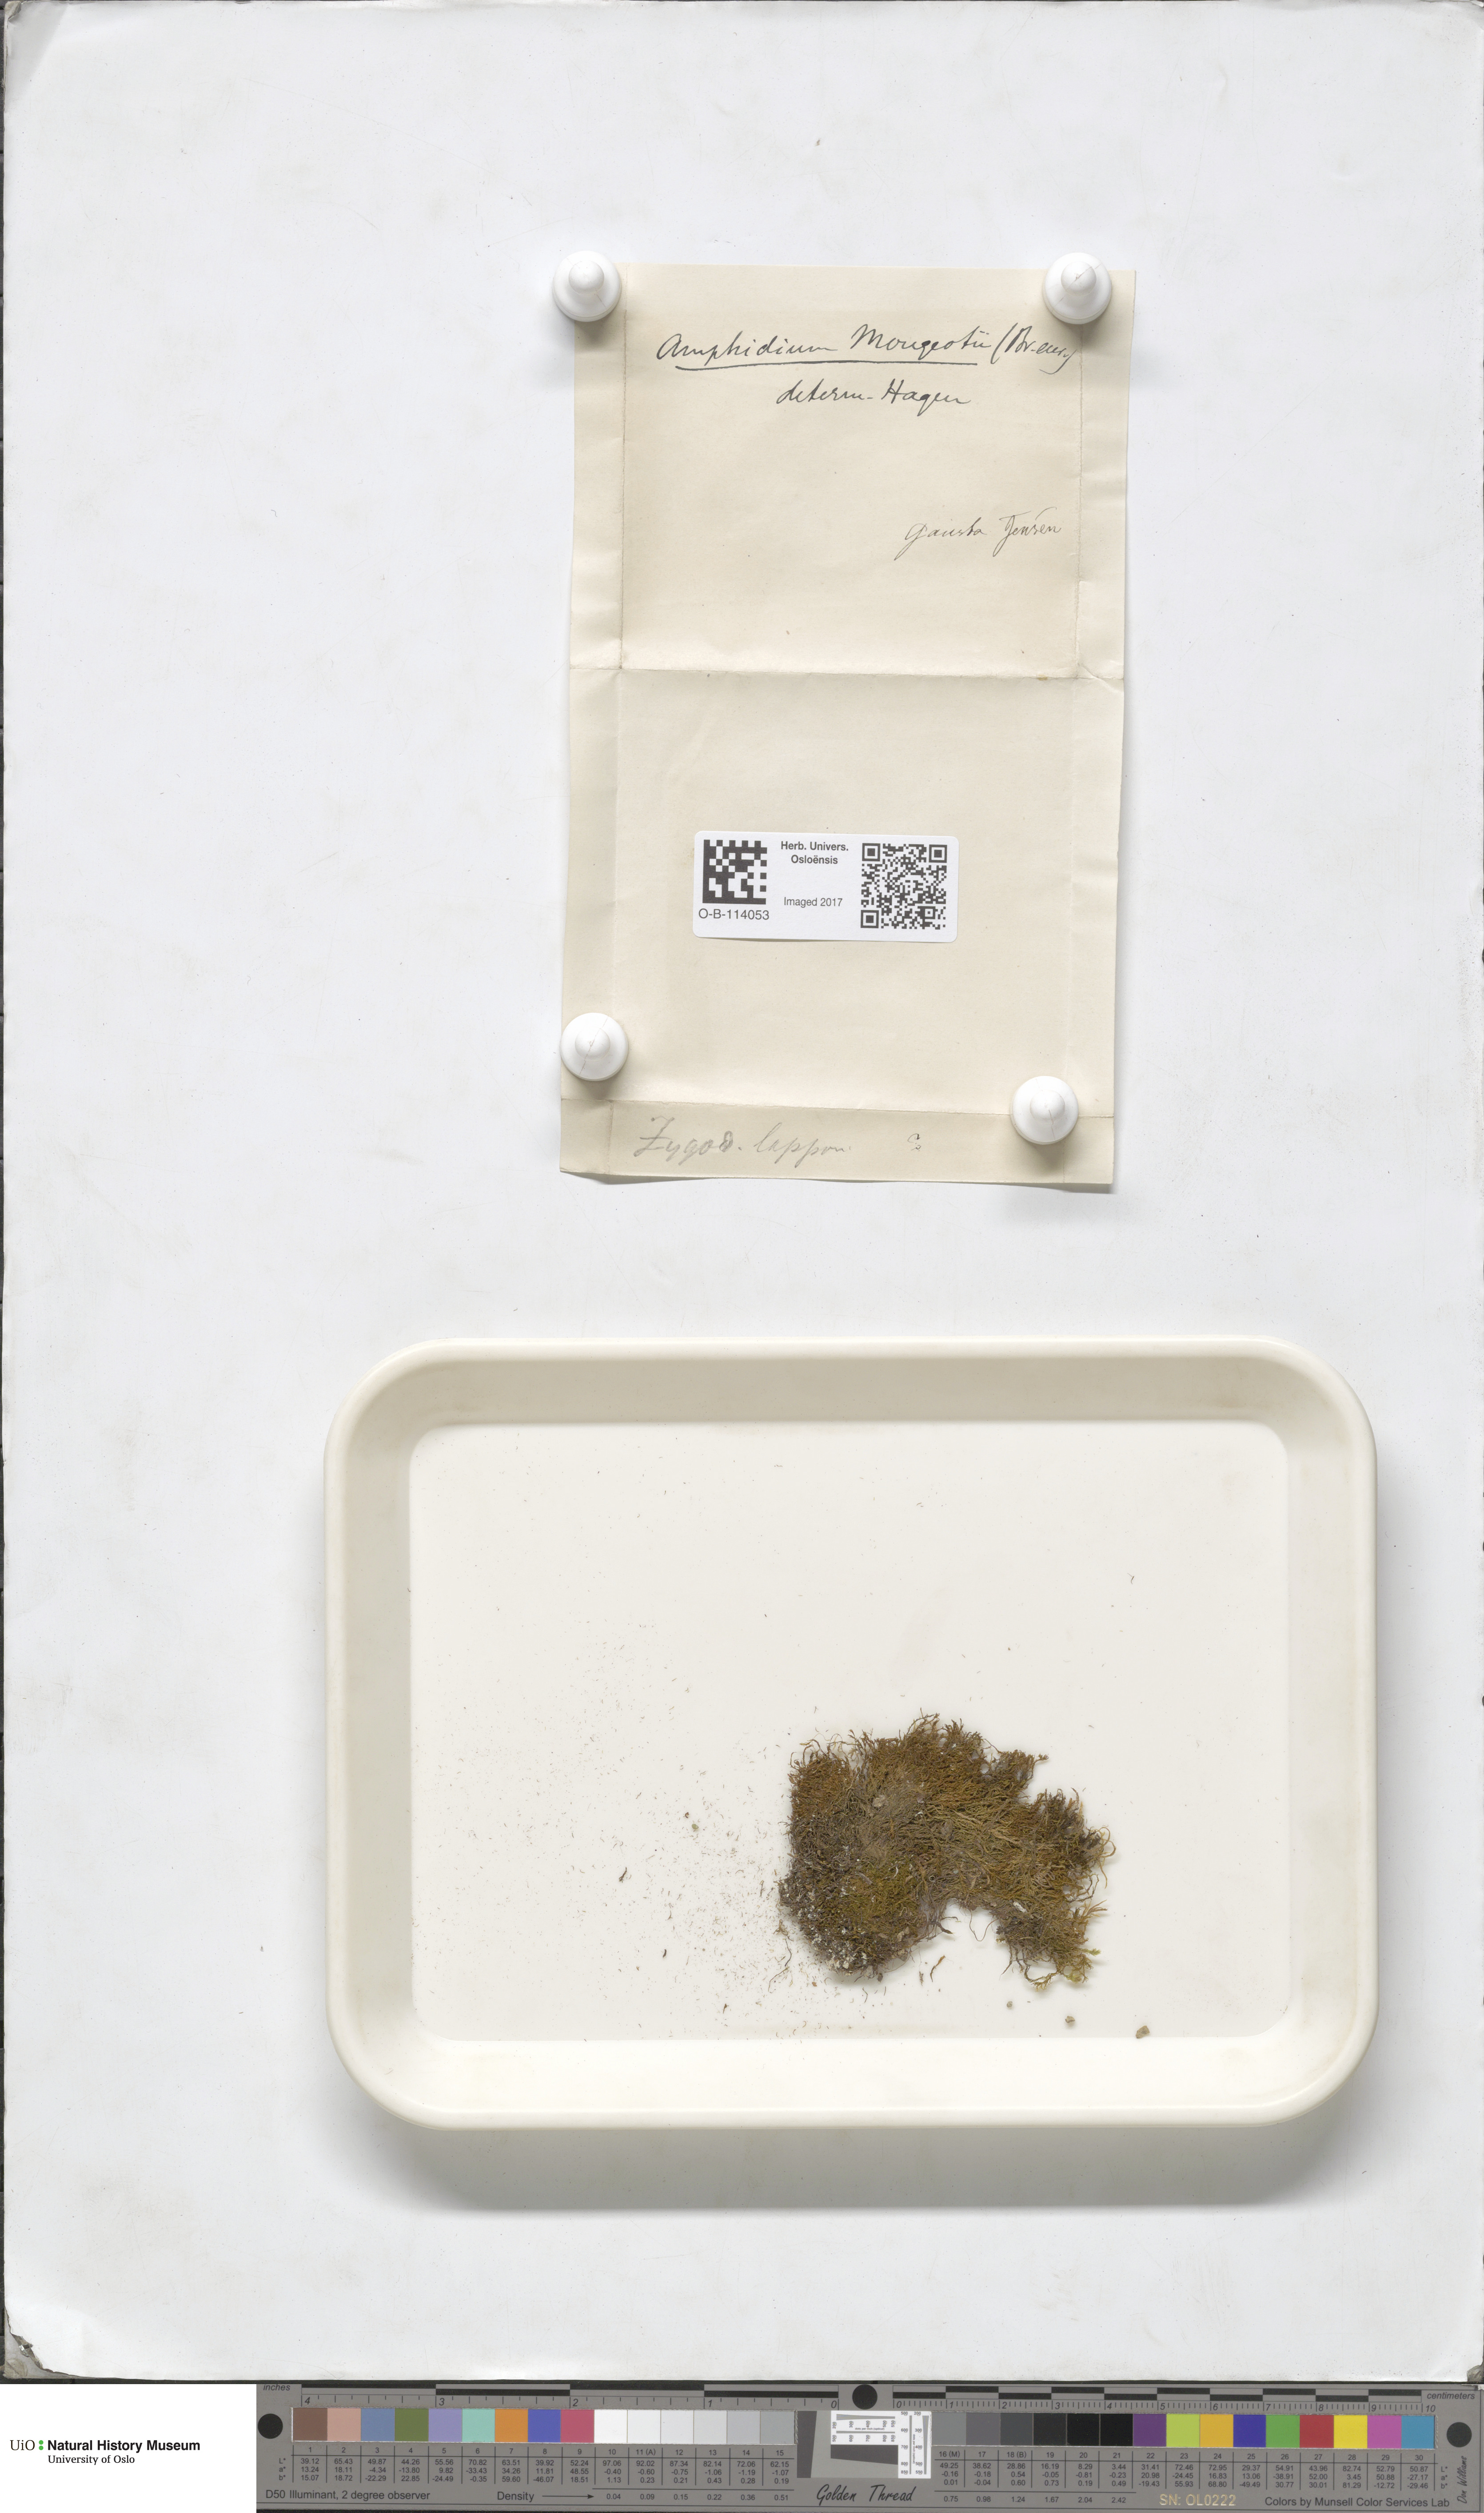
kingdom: Plantae
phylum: Bryophyta
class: Bryopsida
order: Dicranales
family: Amphidiaceae
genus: Amphidium
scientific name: Amphidium mougeotii
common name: Mougeot's yoke moss
